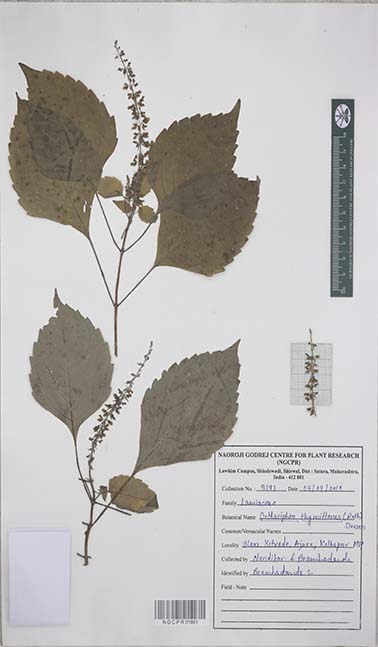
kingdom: Plantae
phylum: Tracheophyta
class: Magnoliopsida
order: Lamiales
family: Lamiaceae
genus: Orthosiphon
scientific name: Orthosiphon thymiflorus
